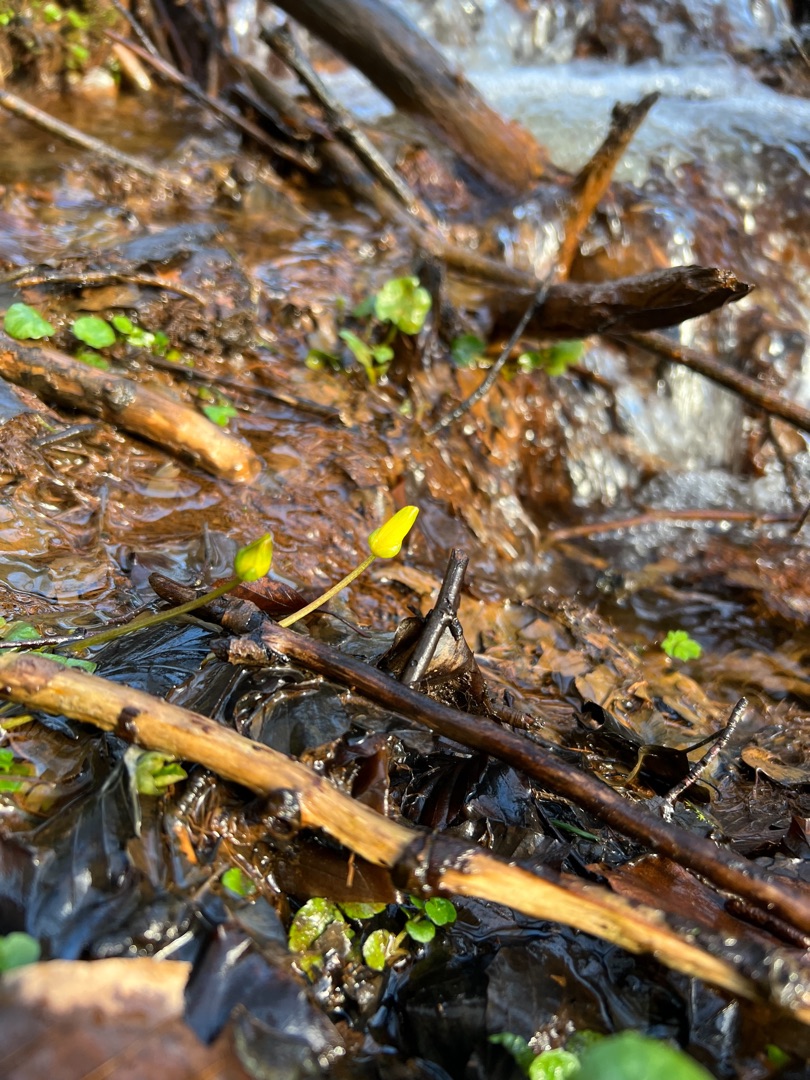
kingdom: Plantae
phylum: Tracheophyta
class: Magnoliopsida
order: Ranunculales
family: Ranunculaceae
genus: Ficaria
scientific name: Ficaria verna
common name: Vorterod
